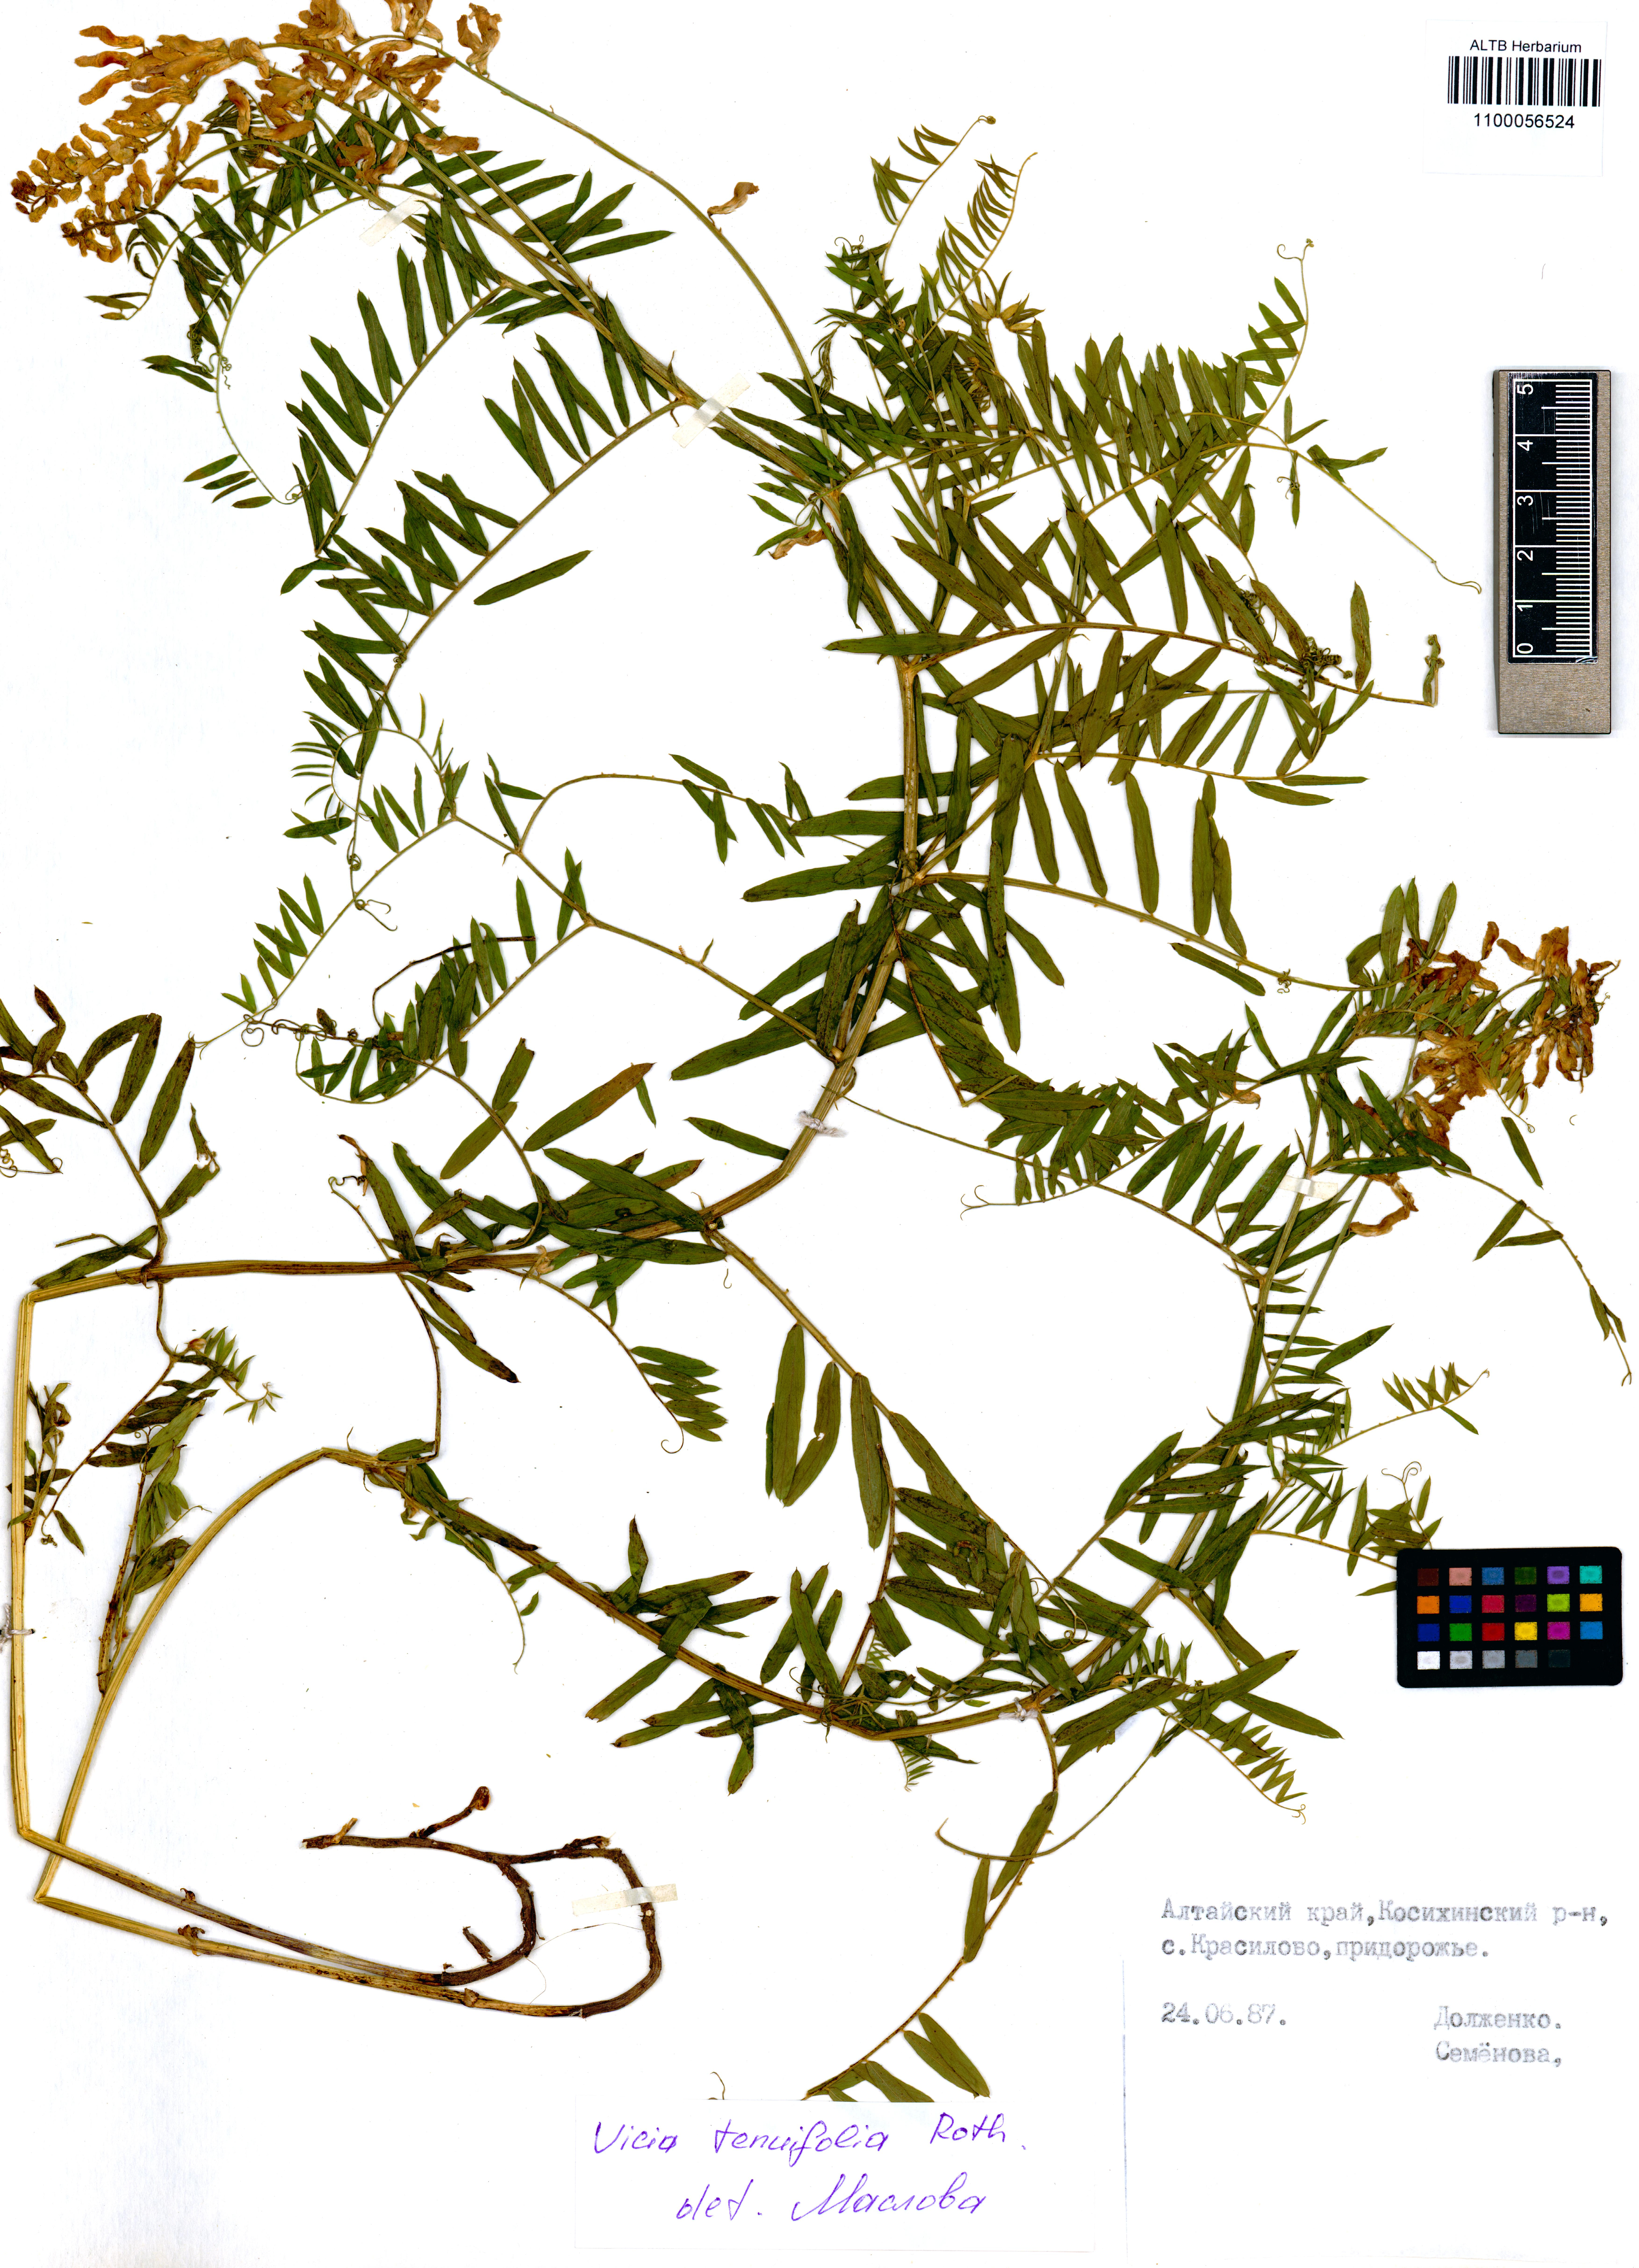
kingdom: Plantae
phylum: Tracheophyta
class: Magnoliopsida
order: Fabales
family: Fabaceae
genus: Vicia
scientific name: Vicia tenuifolia
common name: Fine-leaved vetch
